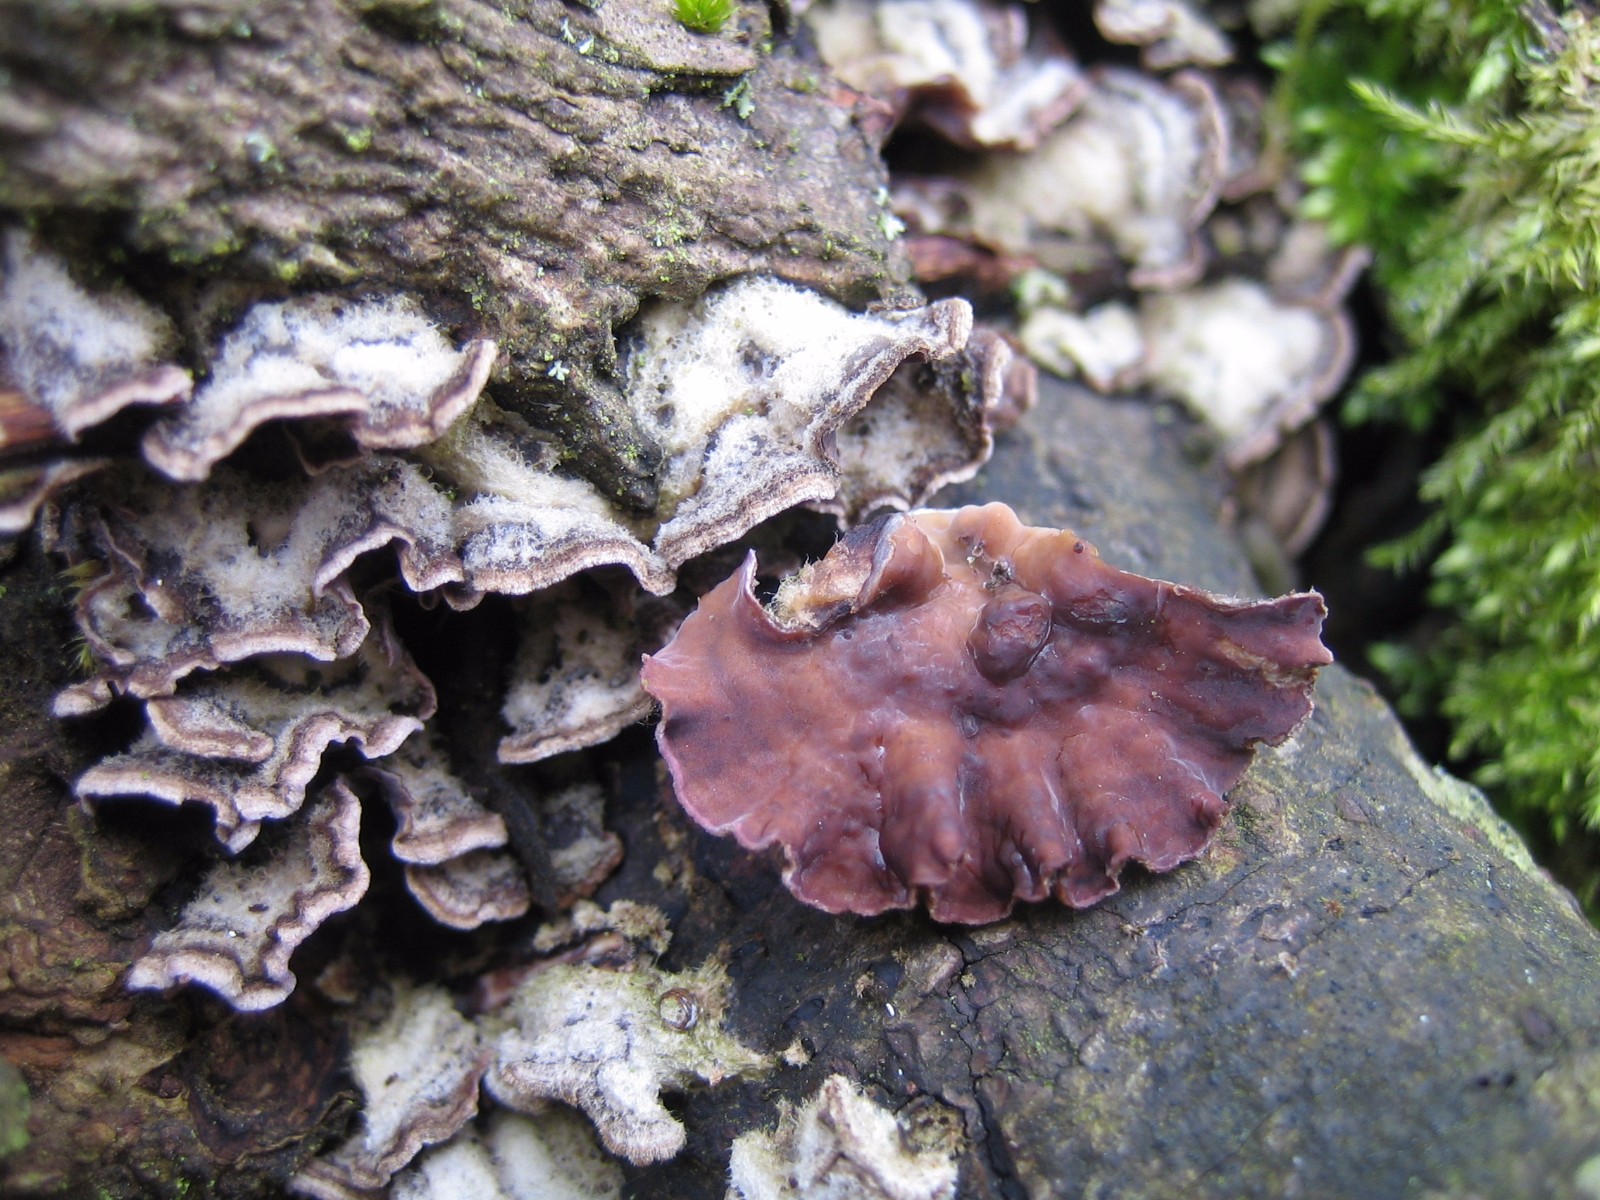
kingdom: Fungi
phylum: Basidiomycota
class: Agaricomycetes
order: Agaricales
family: Cyphellaceae
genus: Chondrostereum
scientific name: Chondrostereum purpureum
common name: purpurlædersvamp
